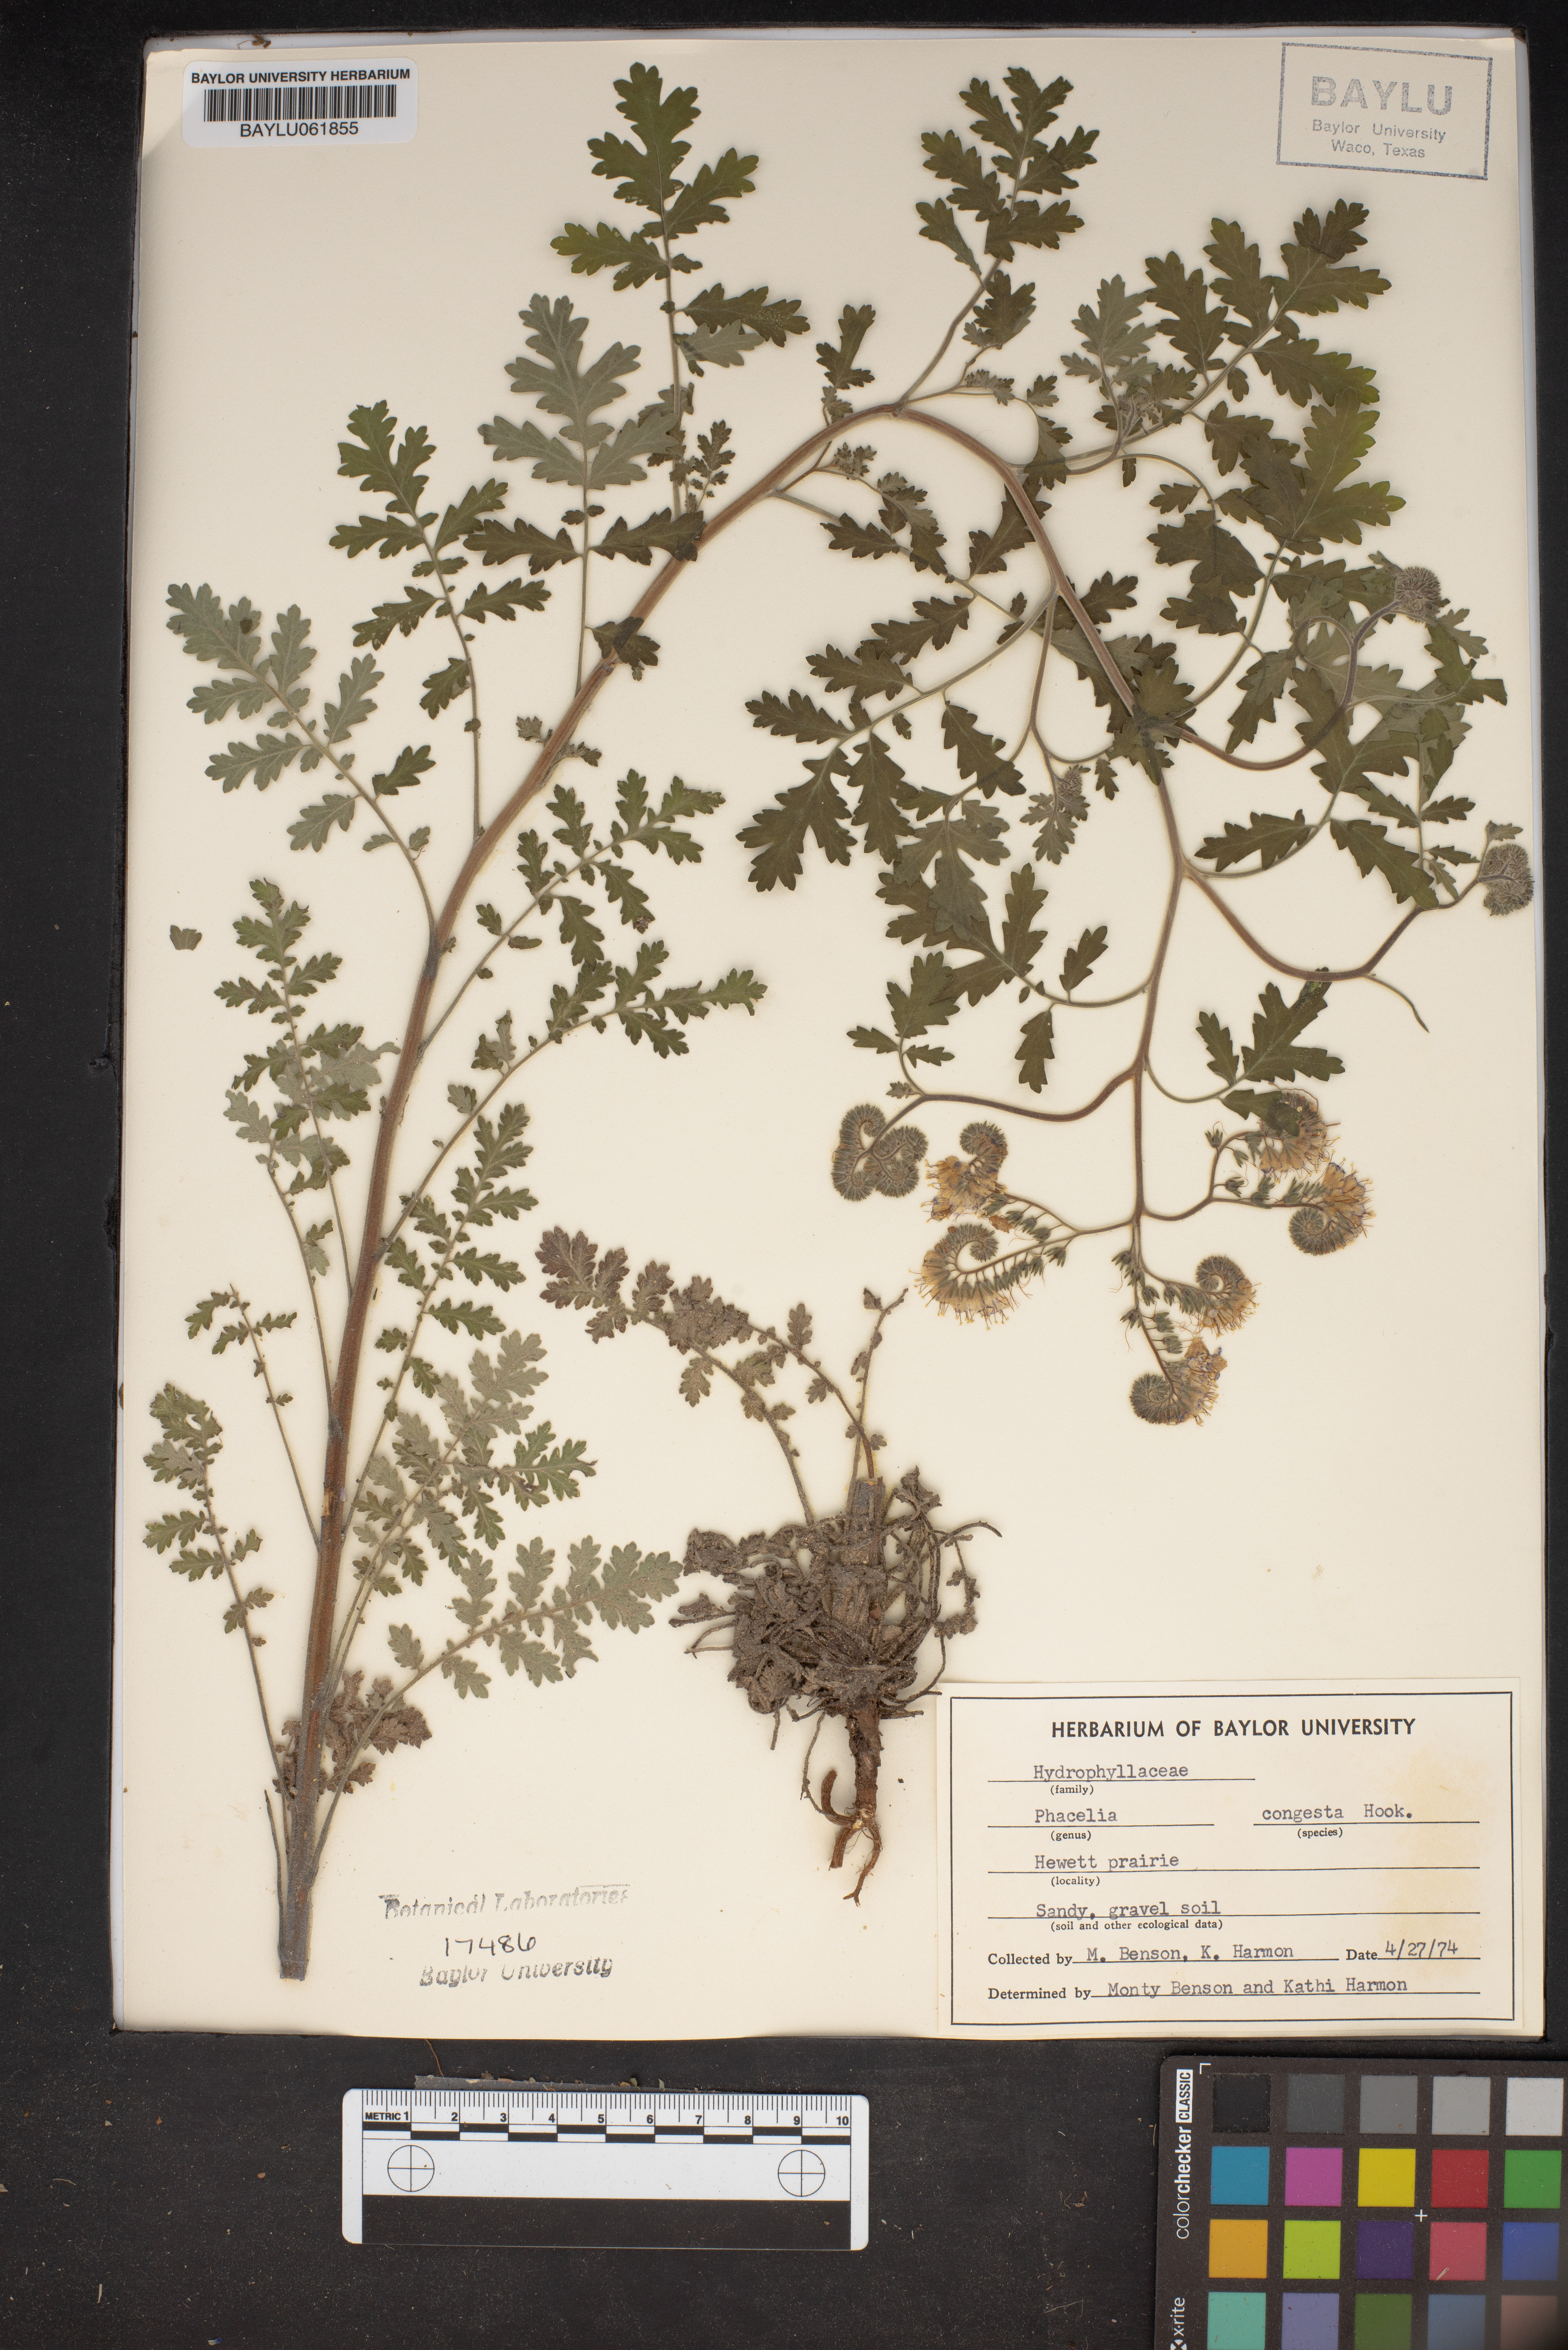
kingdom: Plantae
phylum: Tracheophyta
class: Magnoliopsida
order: Boraginales
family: Hydrophyllaceae
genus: Phacelia
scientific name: Phacelia congesta
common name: Blue curls
